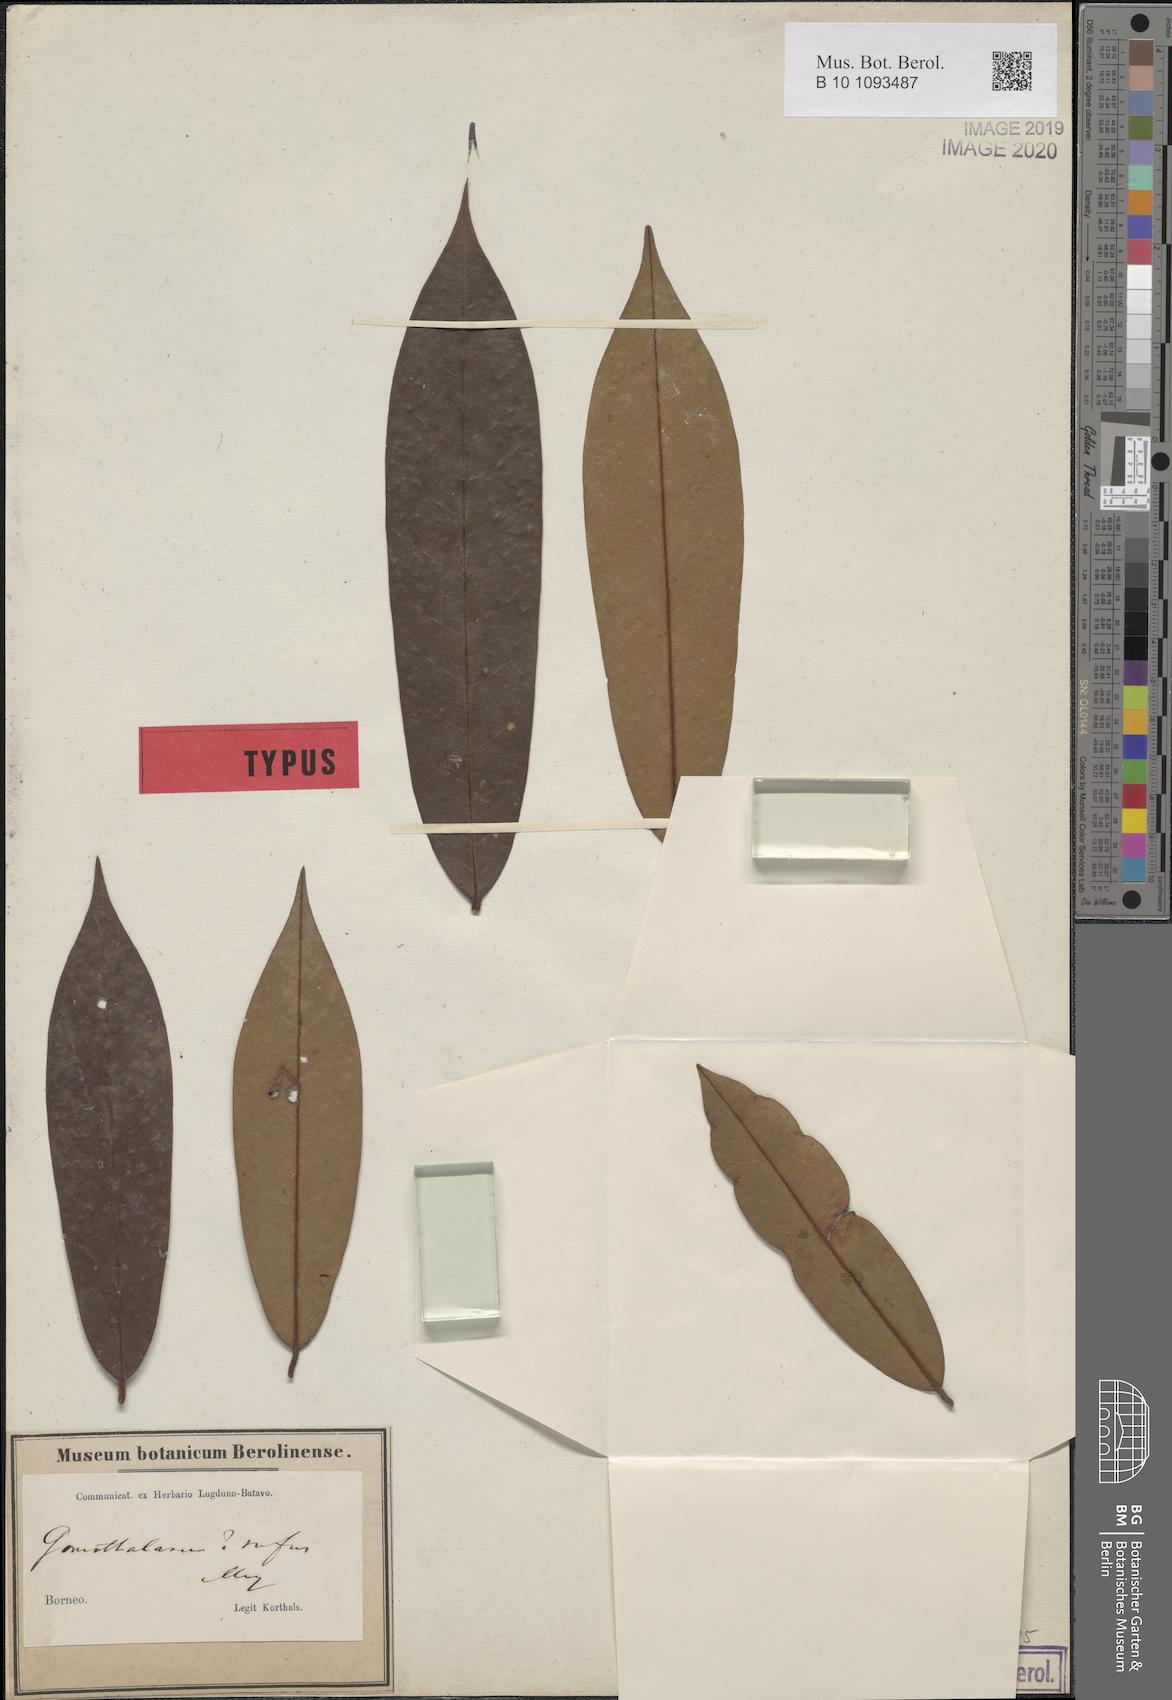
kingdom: Plantae
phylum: Tracheophyta
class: Magnoliopsida
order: Magnoliales
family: Annonaceae
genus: Goniothalamus
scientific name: Goniothalamus rufus
